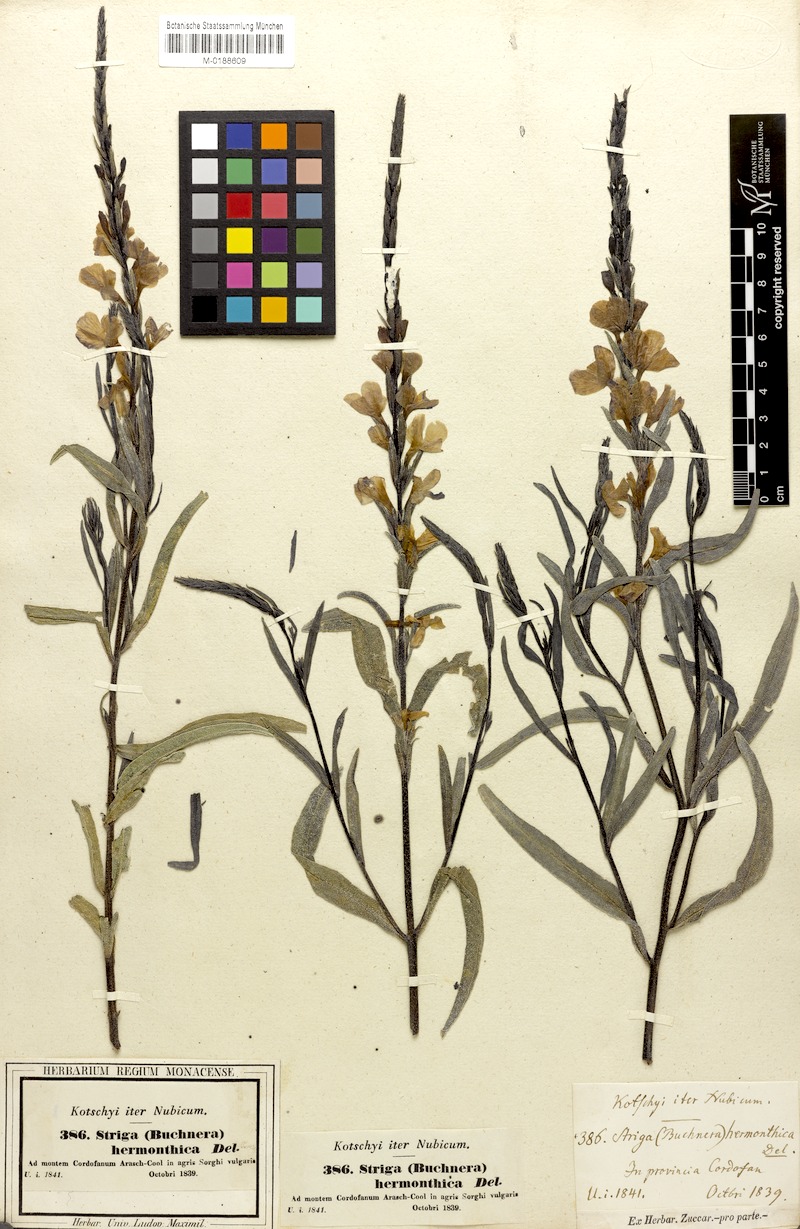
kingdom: Plantae
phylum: Tracheophyta
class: Magnoliopsida
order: Lamiales
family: Orobanchaceae
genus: Striga
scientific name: Striga hermonthica
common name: Purple witchweed
